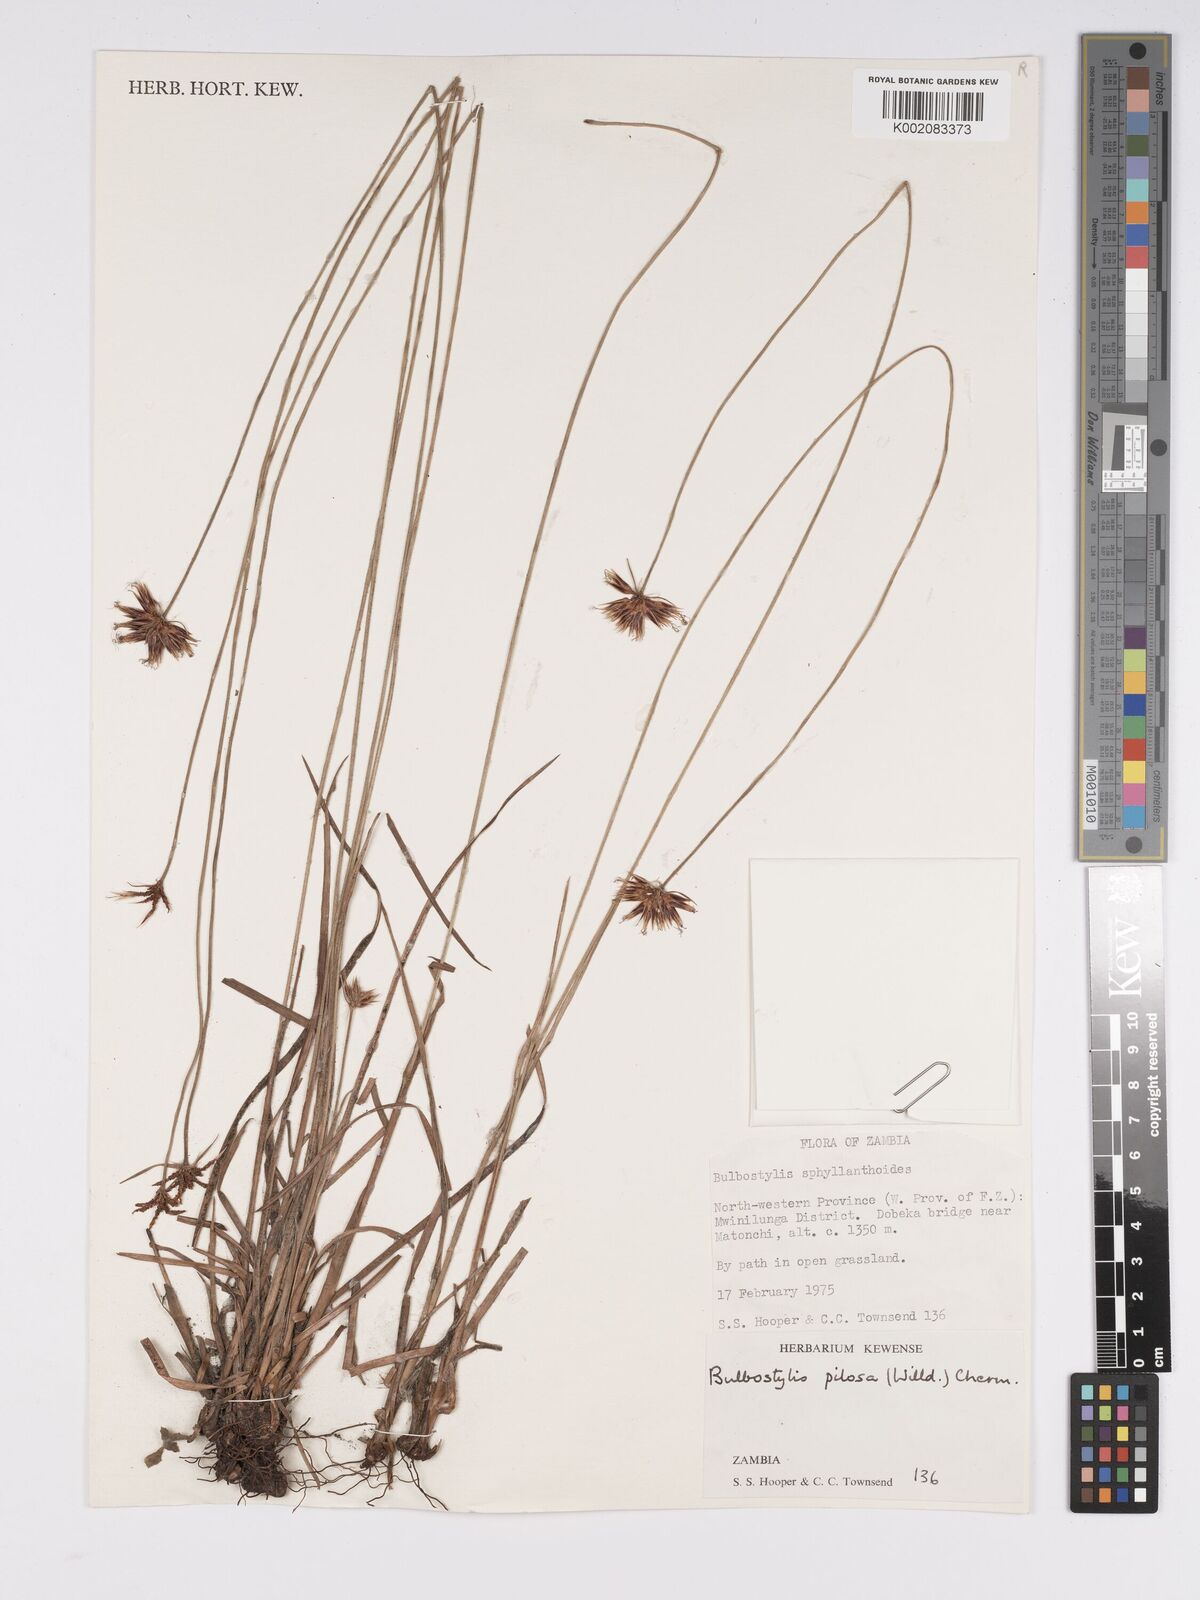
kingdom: Plantae
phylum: Tracheophyta
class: Liliopsida
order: Poales
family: Cyperaceae
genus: Bulbostylis
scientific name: Bulbostylis pilosa
